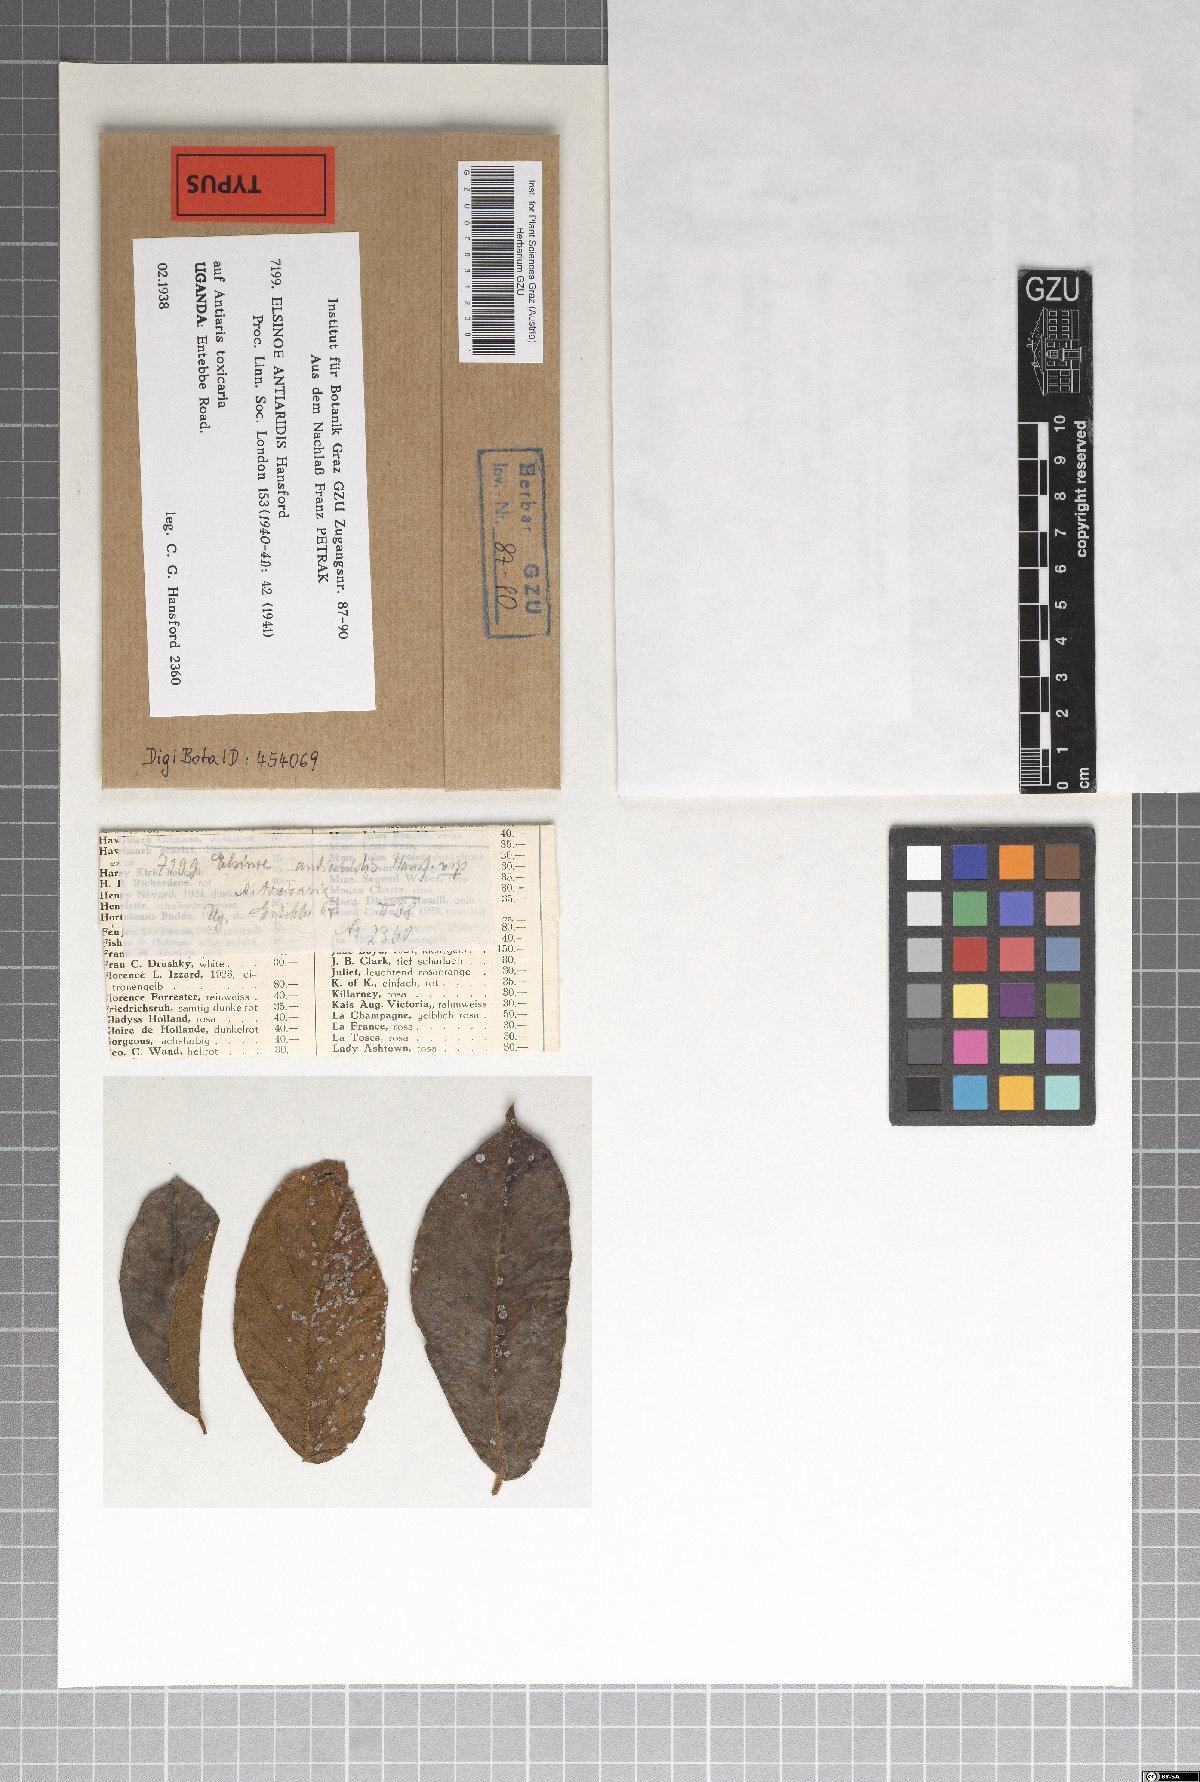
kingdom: Fungi
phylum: Ascomycota
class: Dothideomycetes
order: Myriangiales
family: Elsinoaceae
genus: Elsinoe
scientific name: Elsinoe antiaridis
